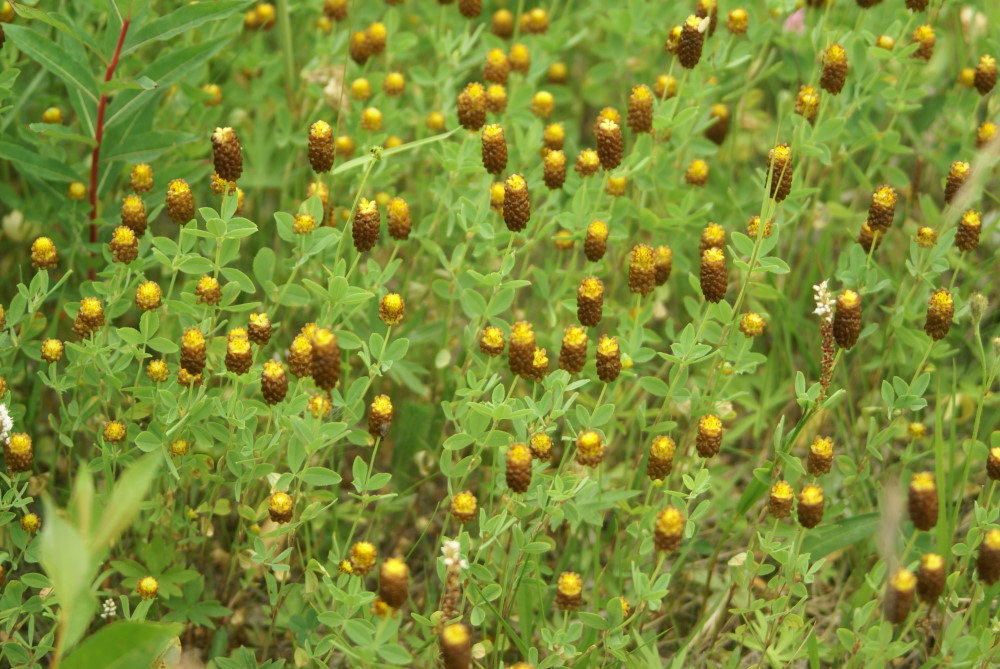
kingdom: Plantae
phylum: Tracheophyta
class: Magnoliopsida
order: Fabales
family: Fabaceae
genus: Trifolium
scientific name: Trifolium spadiceum
